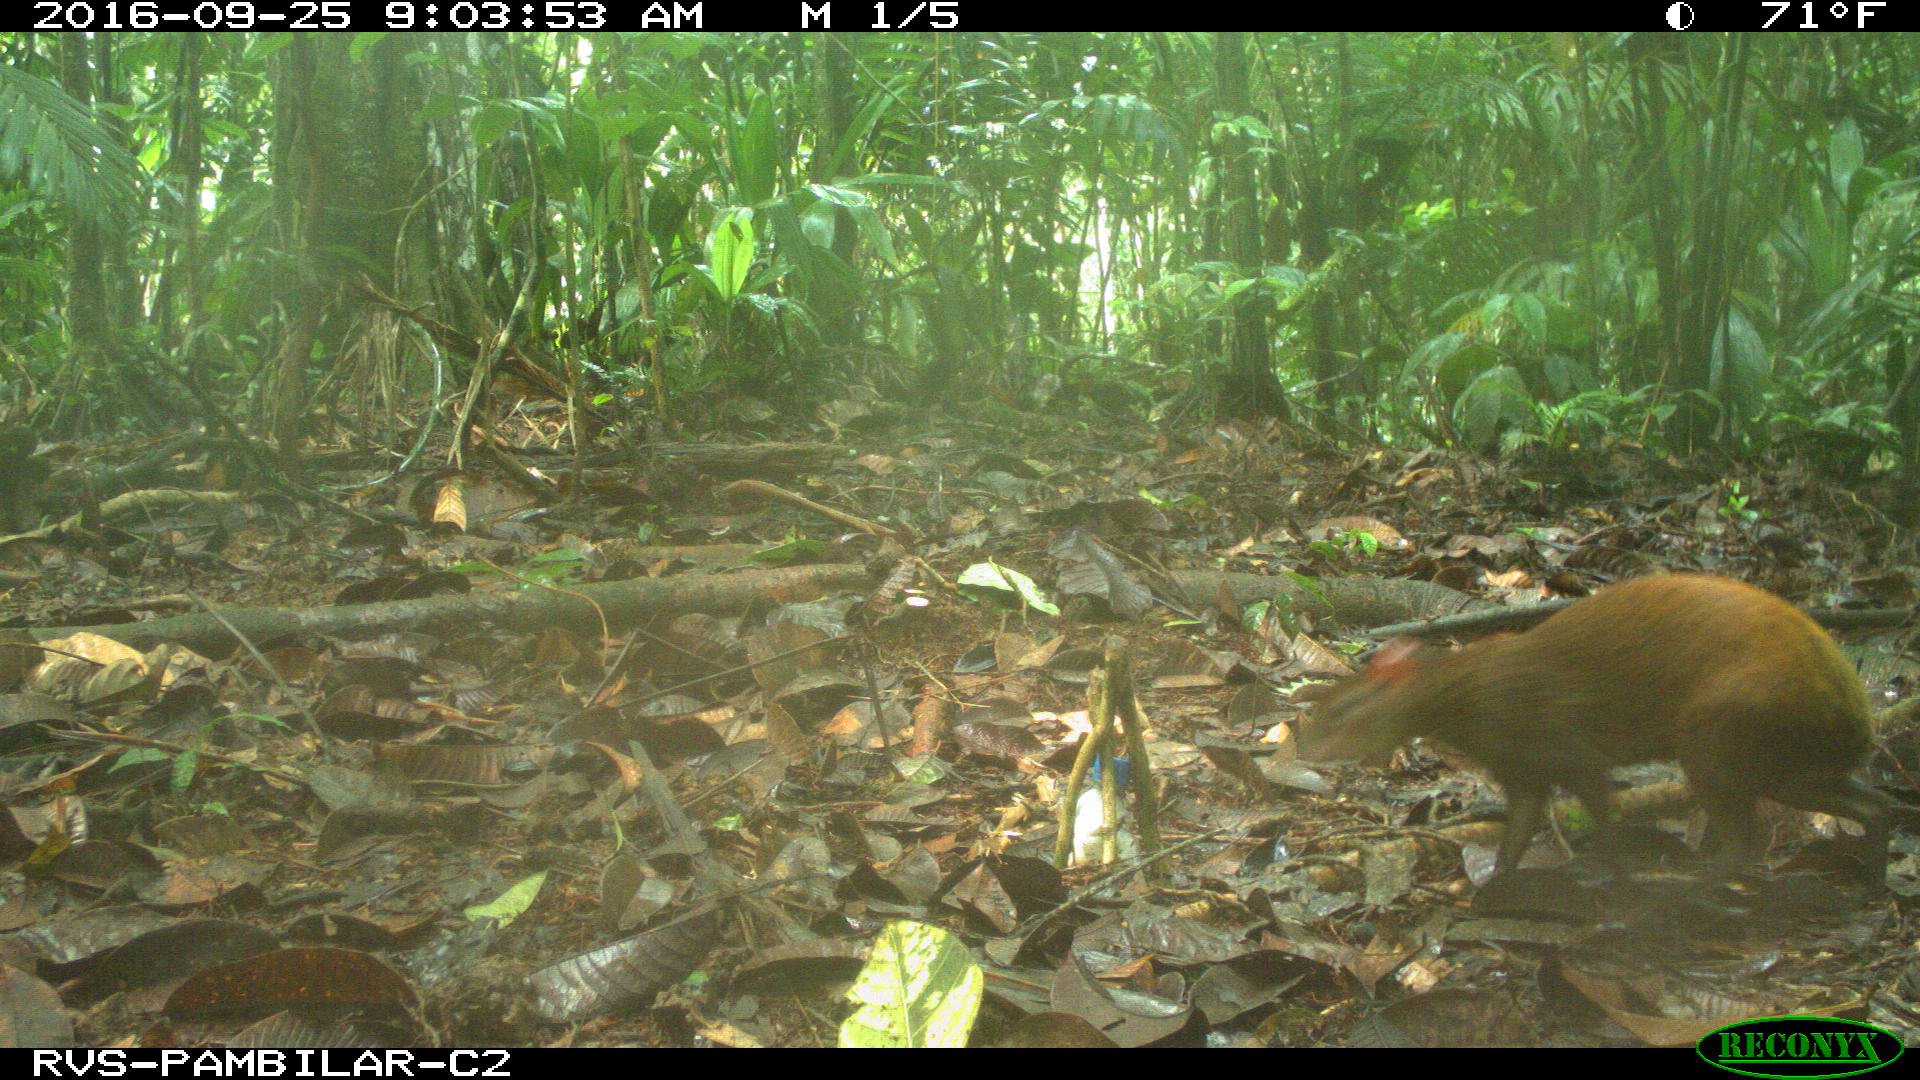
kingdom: Animalia
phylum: Chordata
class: Mammalia
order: Rodentia
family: Dasyproctidae
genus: Dasyprocta
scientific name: Dasyprocta punctata
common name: Central american agouti
